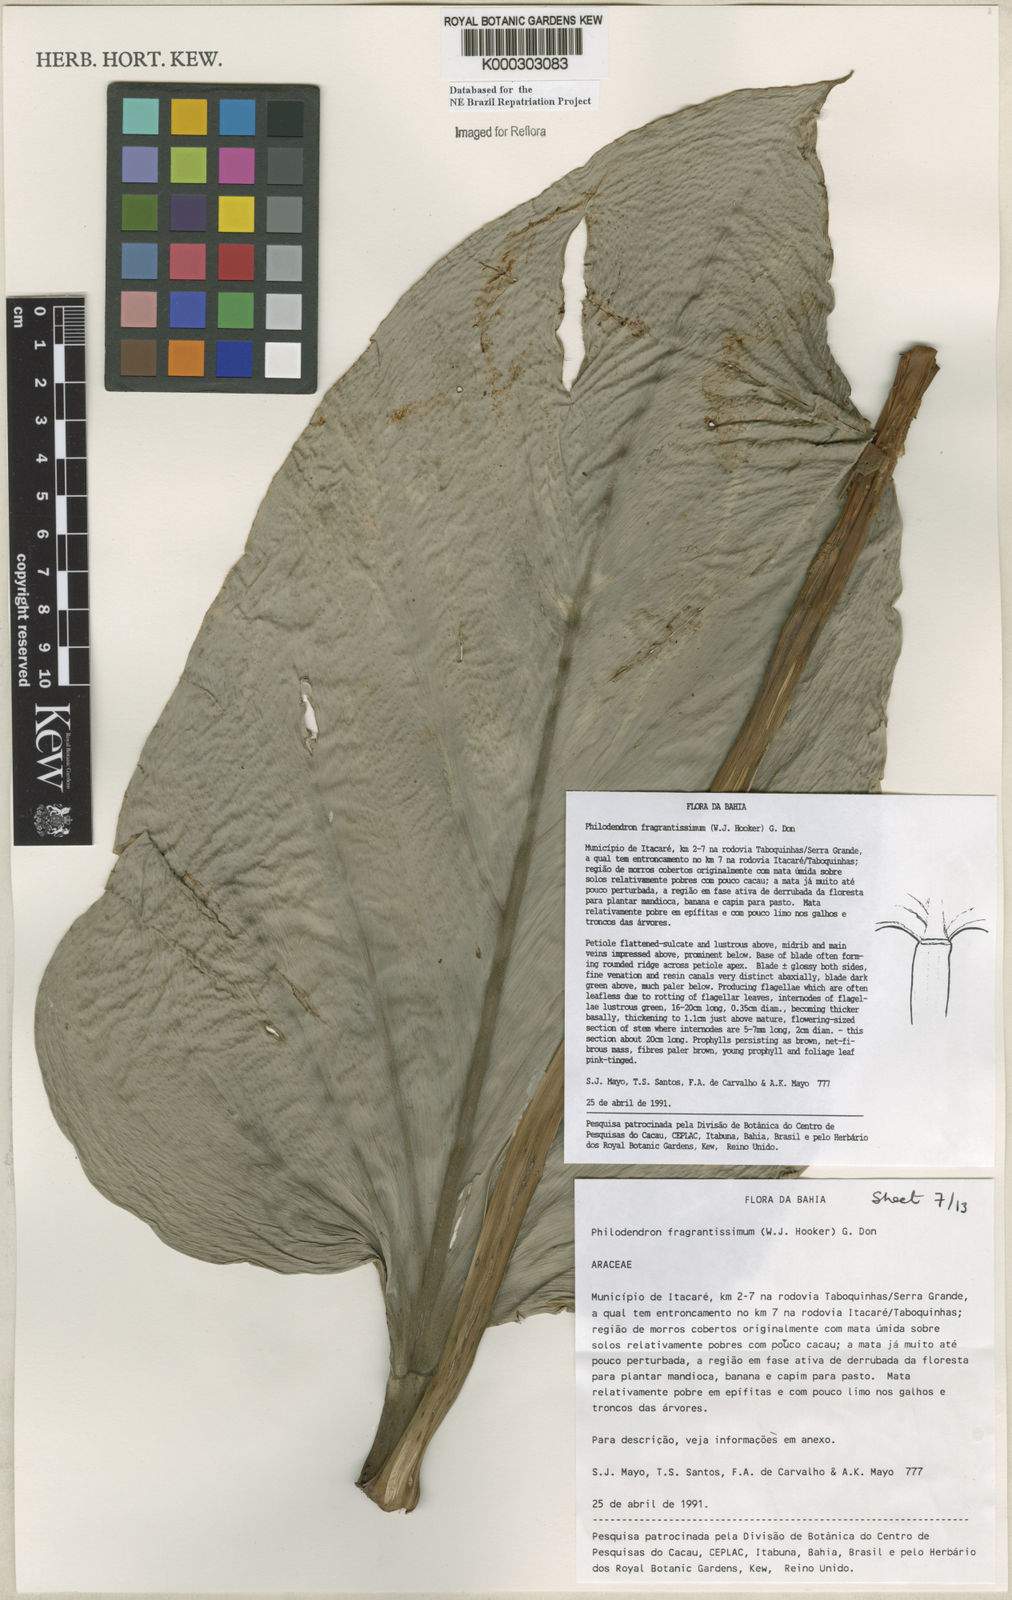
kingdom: Plantae
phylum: Tracheophyta
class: Liliopsida
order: Alismatales
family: Araceae
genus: Philodendron
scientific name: Philodendron fragrantissimum
